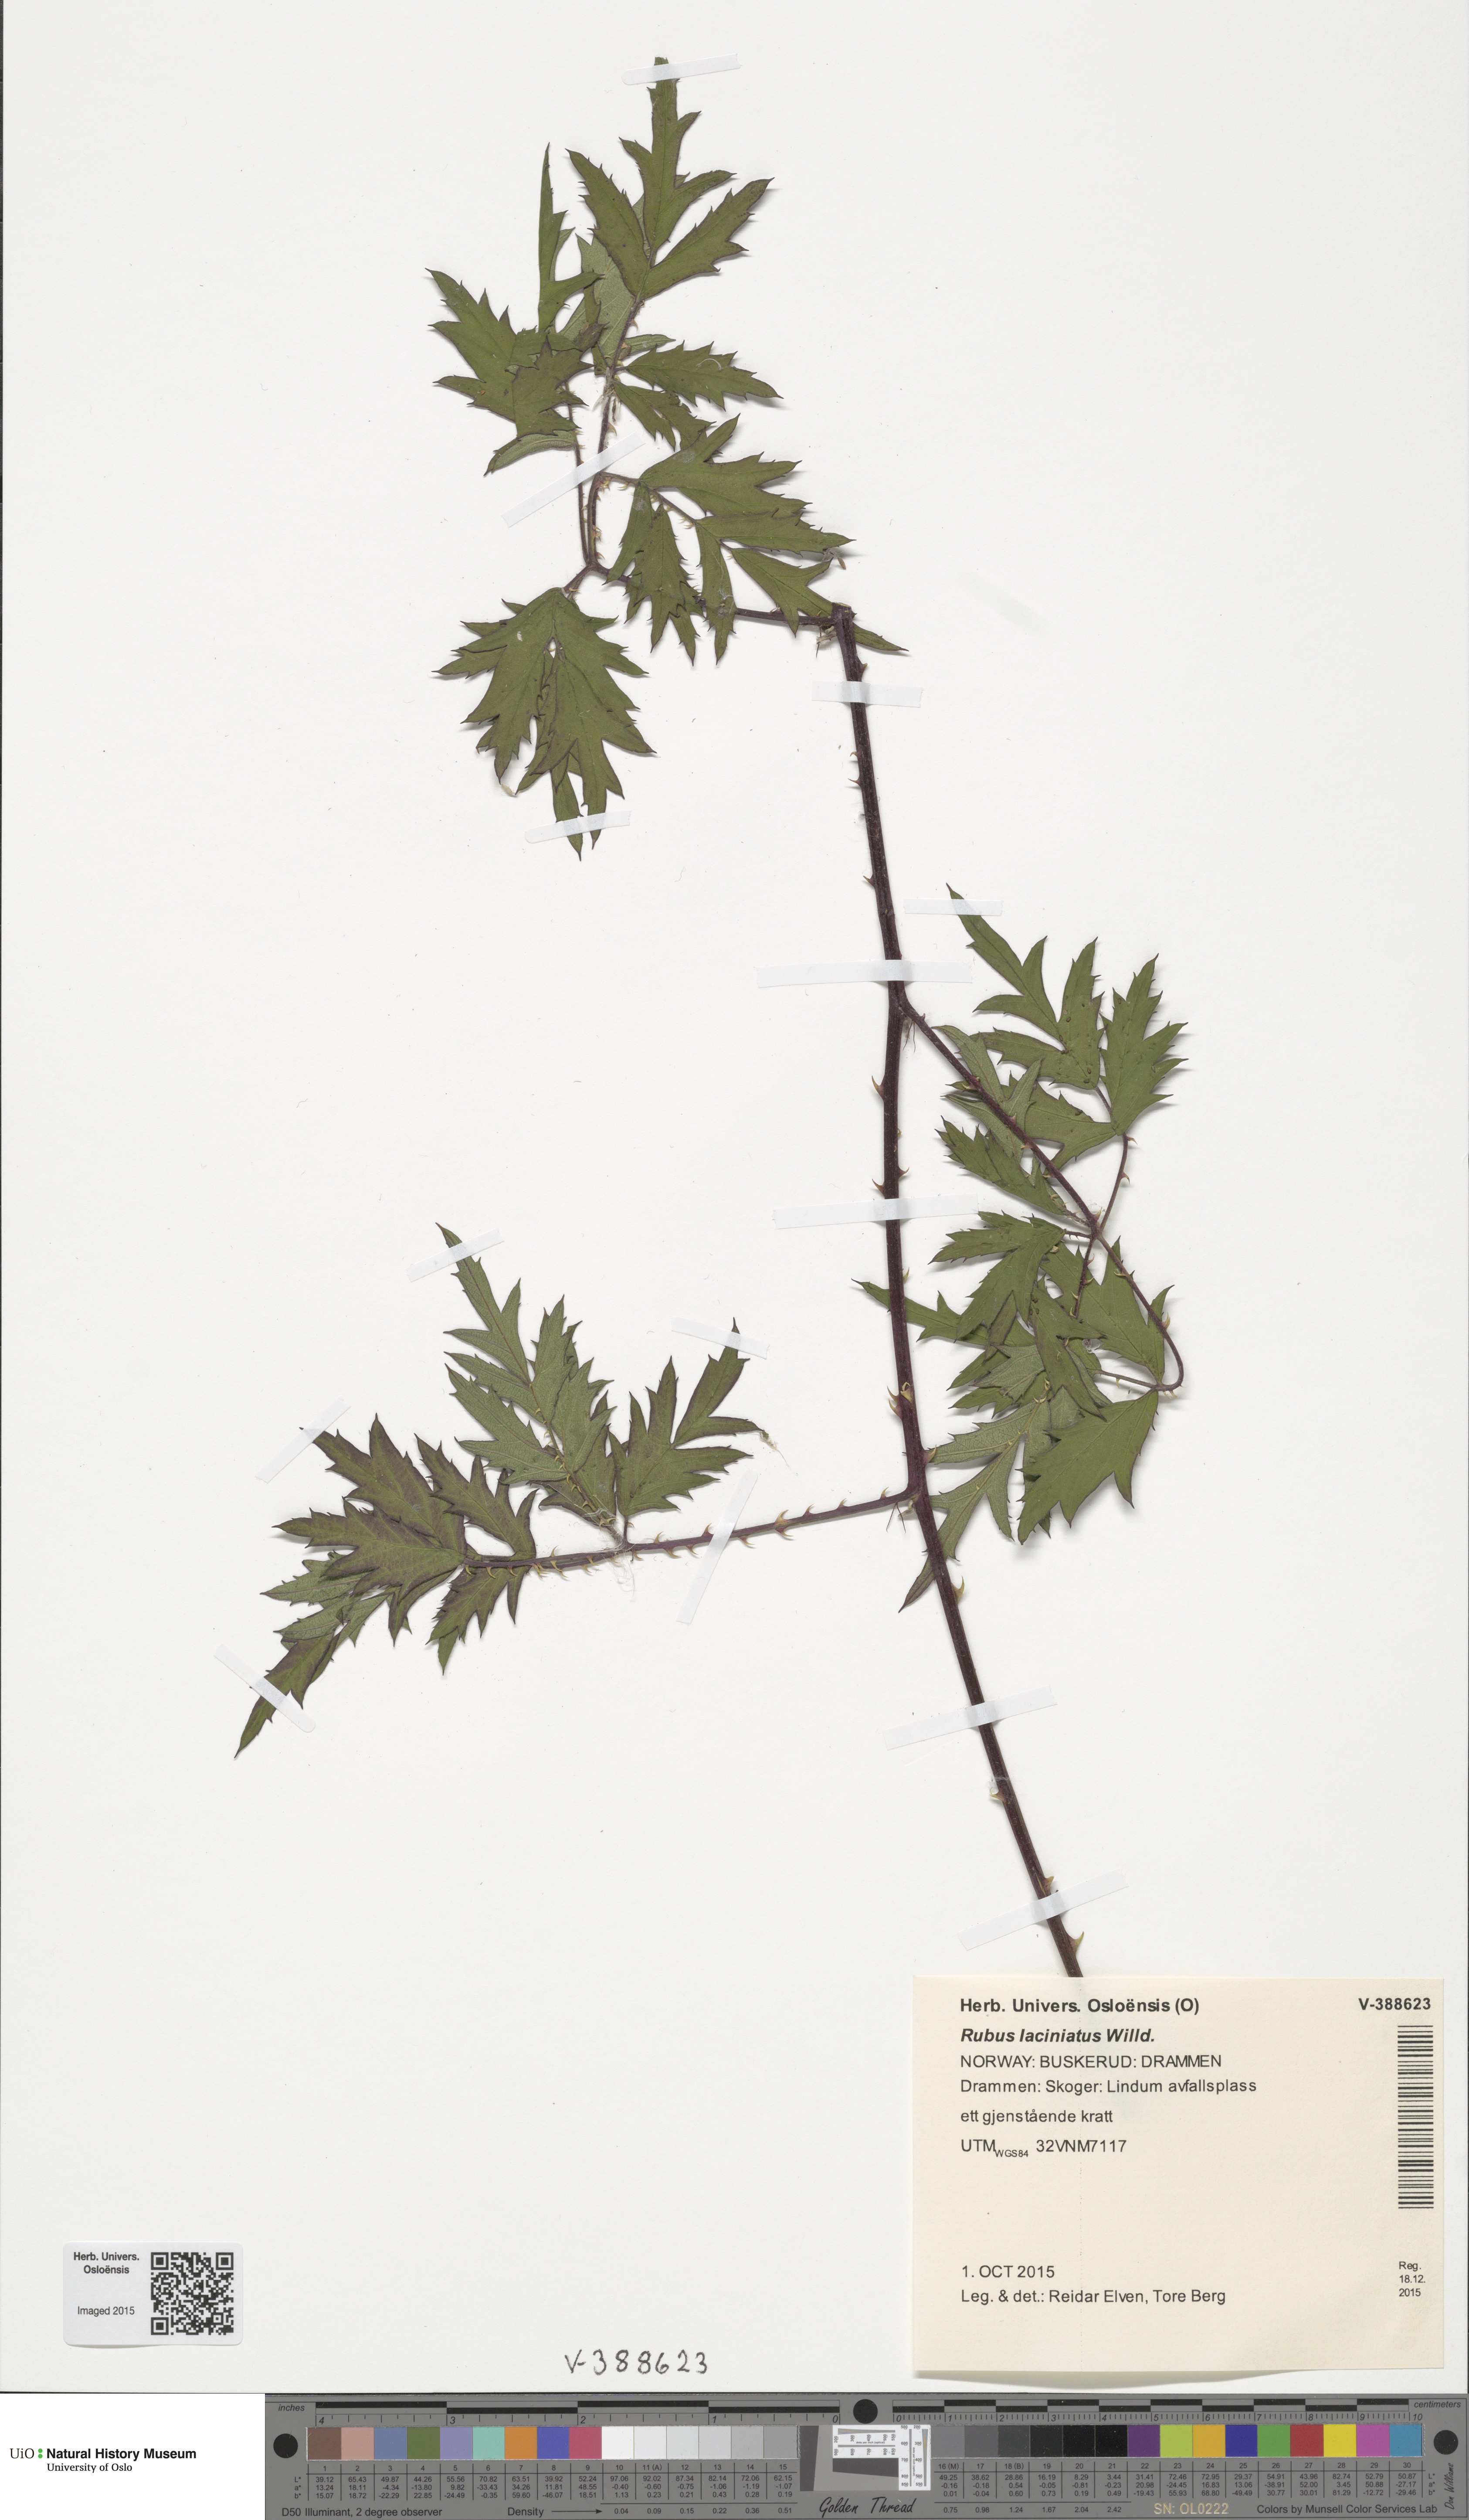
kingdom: Plantae
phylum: Tracheophyta
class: Magnoliopsida
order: Rosales
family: Rosaceae
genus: Rubus
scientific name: Rubus laciniatus
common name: Evergreen blackberry
